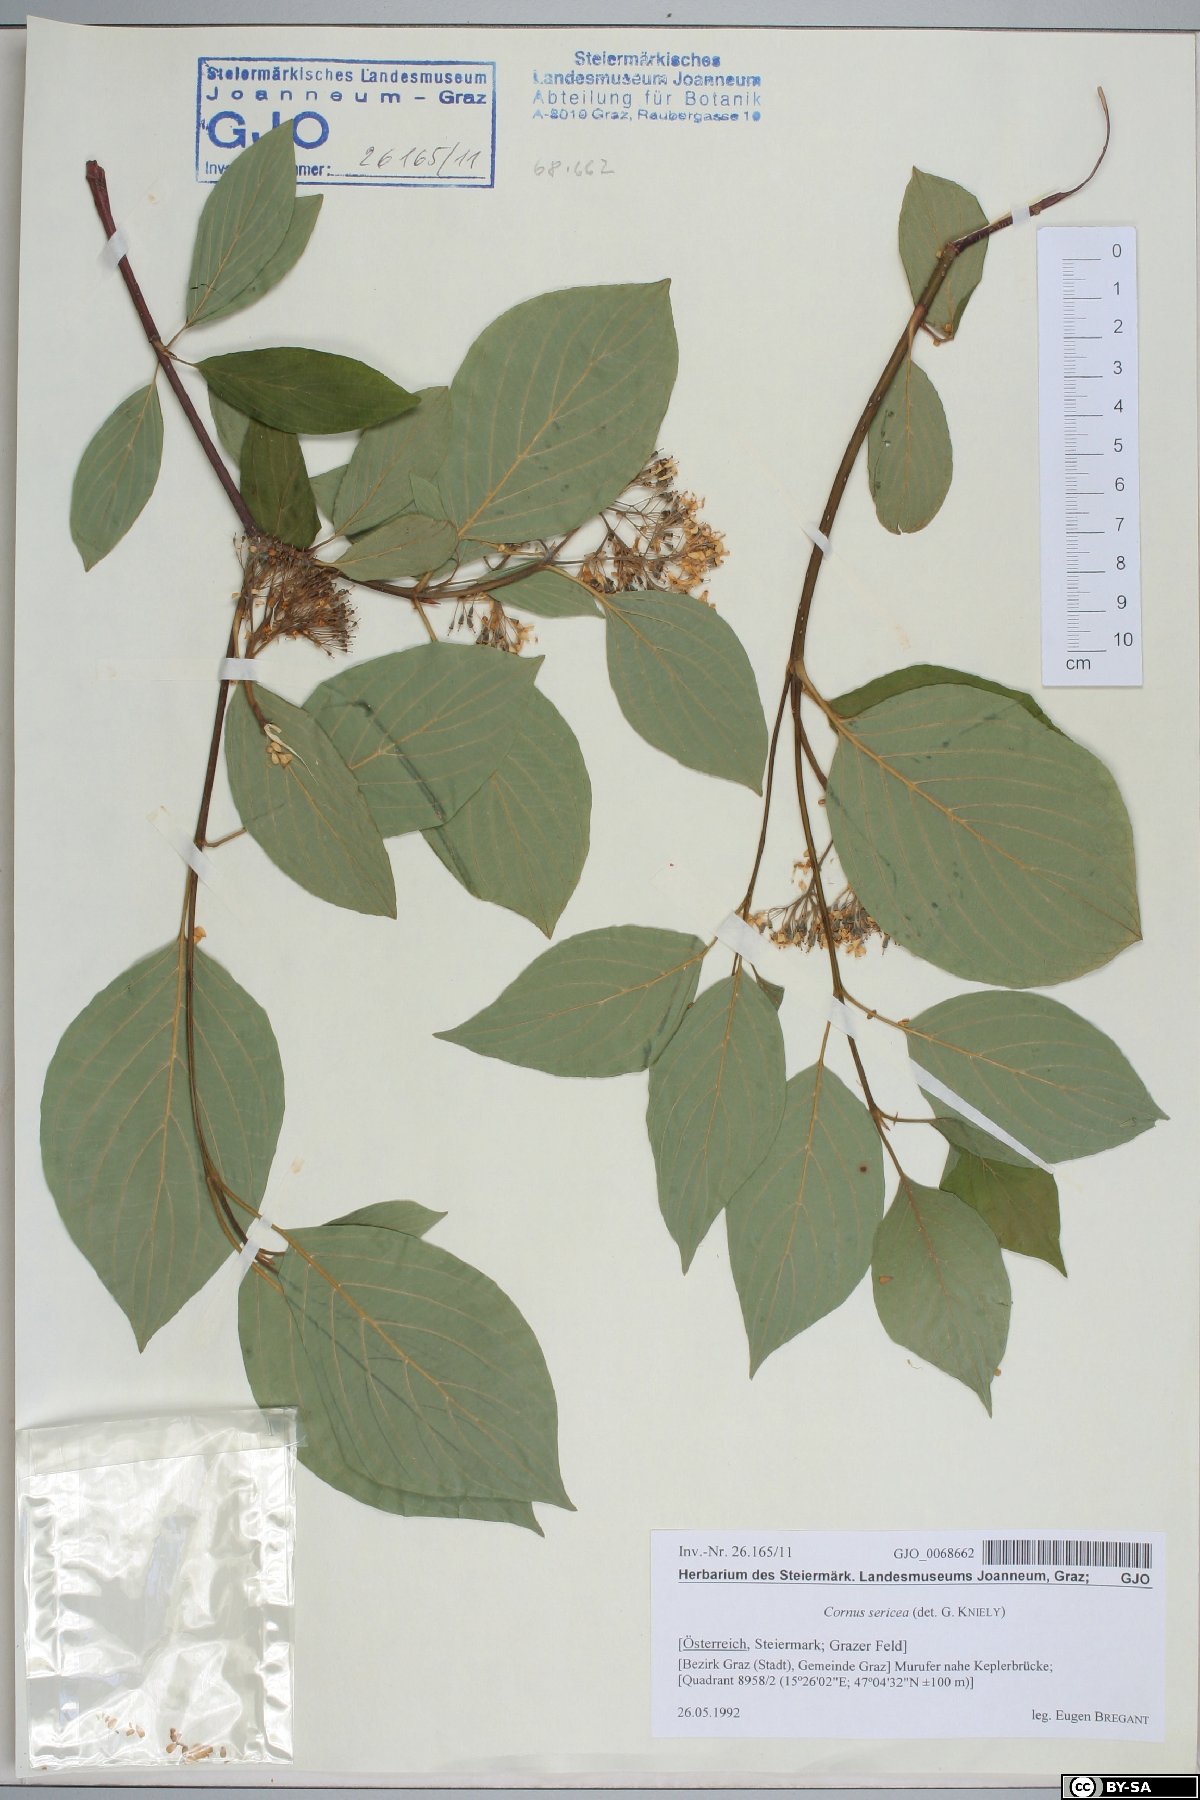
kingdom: Plantae
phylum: Tracheophyta
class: Magnoliopsida
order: Cornales
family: Cornaceae
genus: Cornus
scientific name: Cornus sericea
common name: Red-osier dogwood
